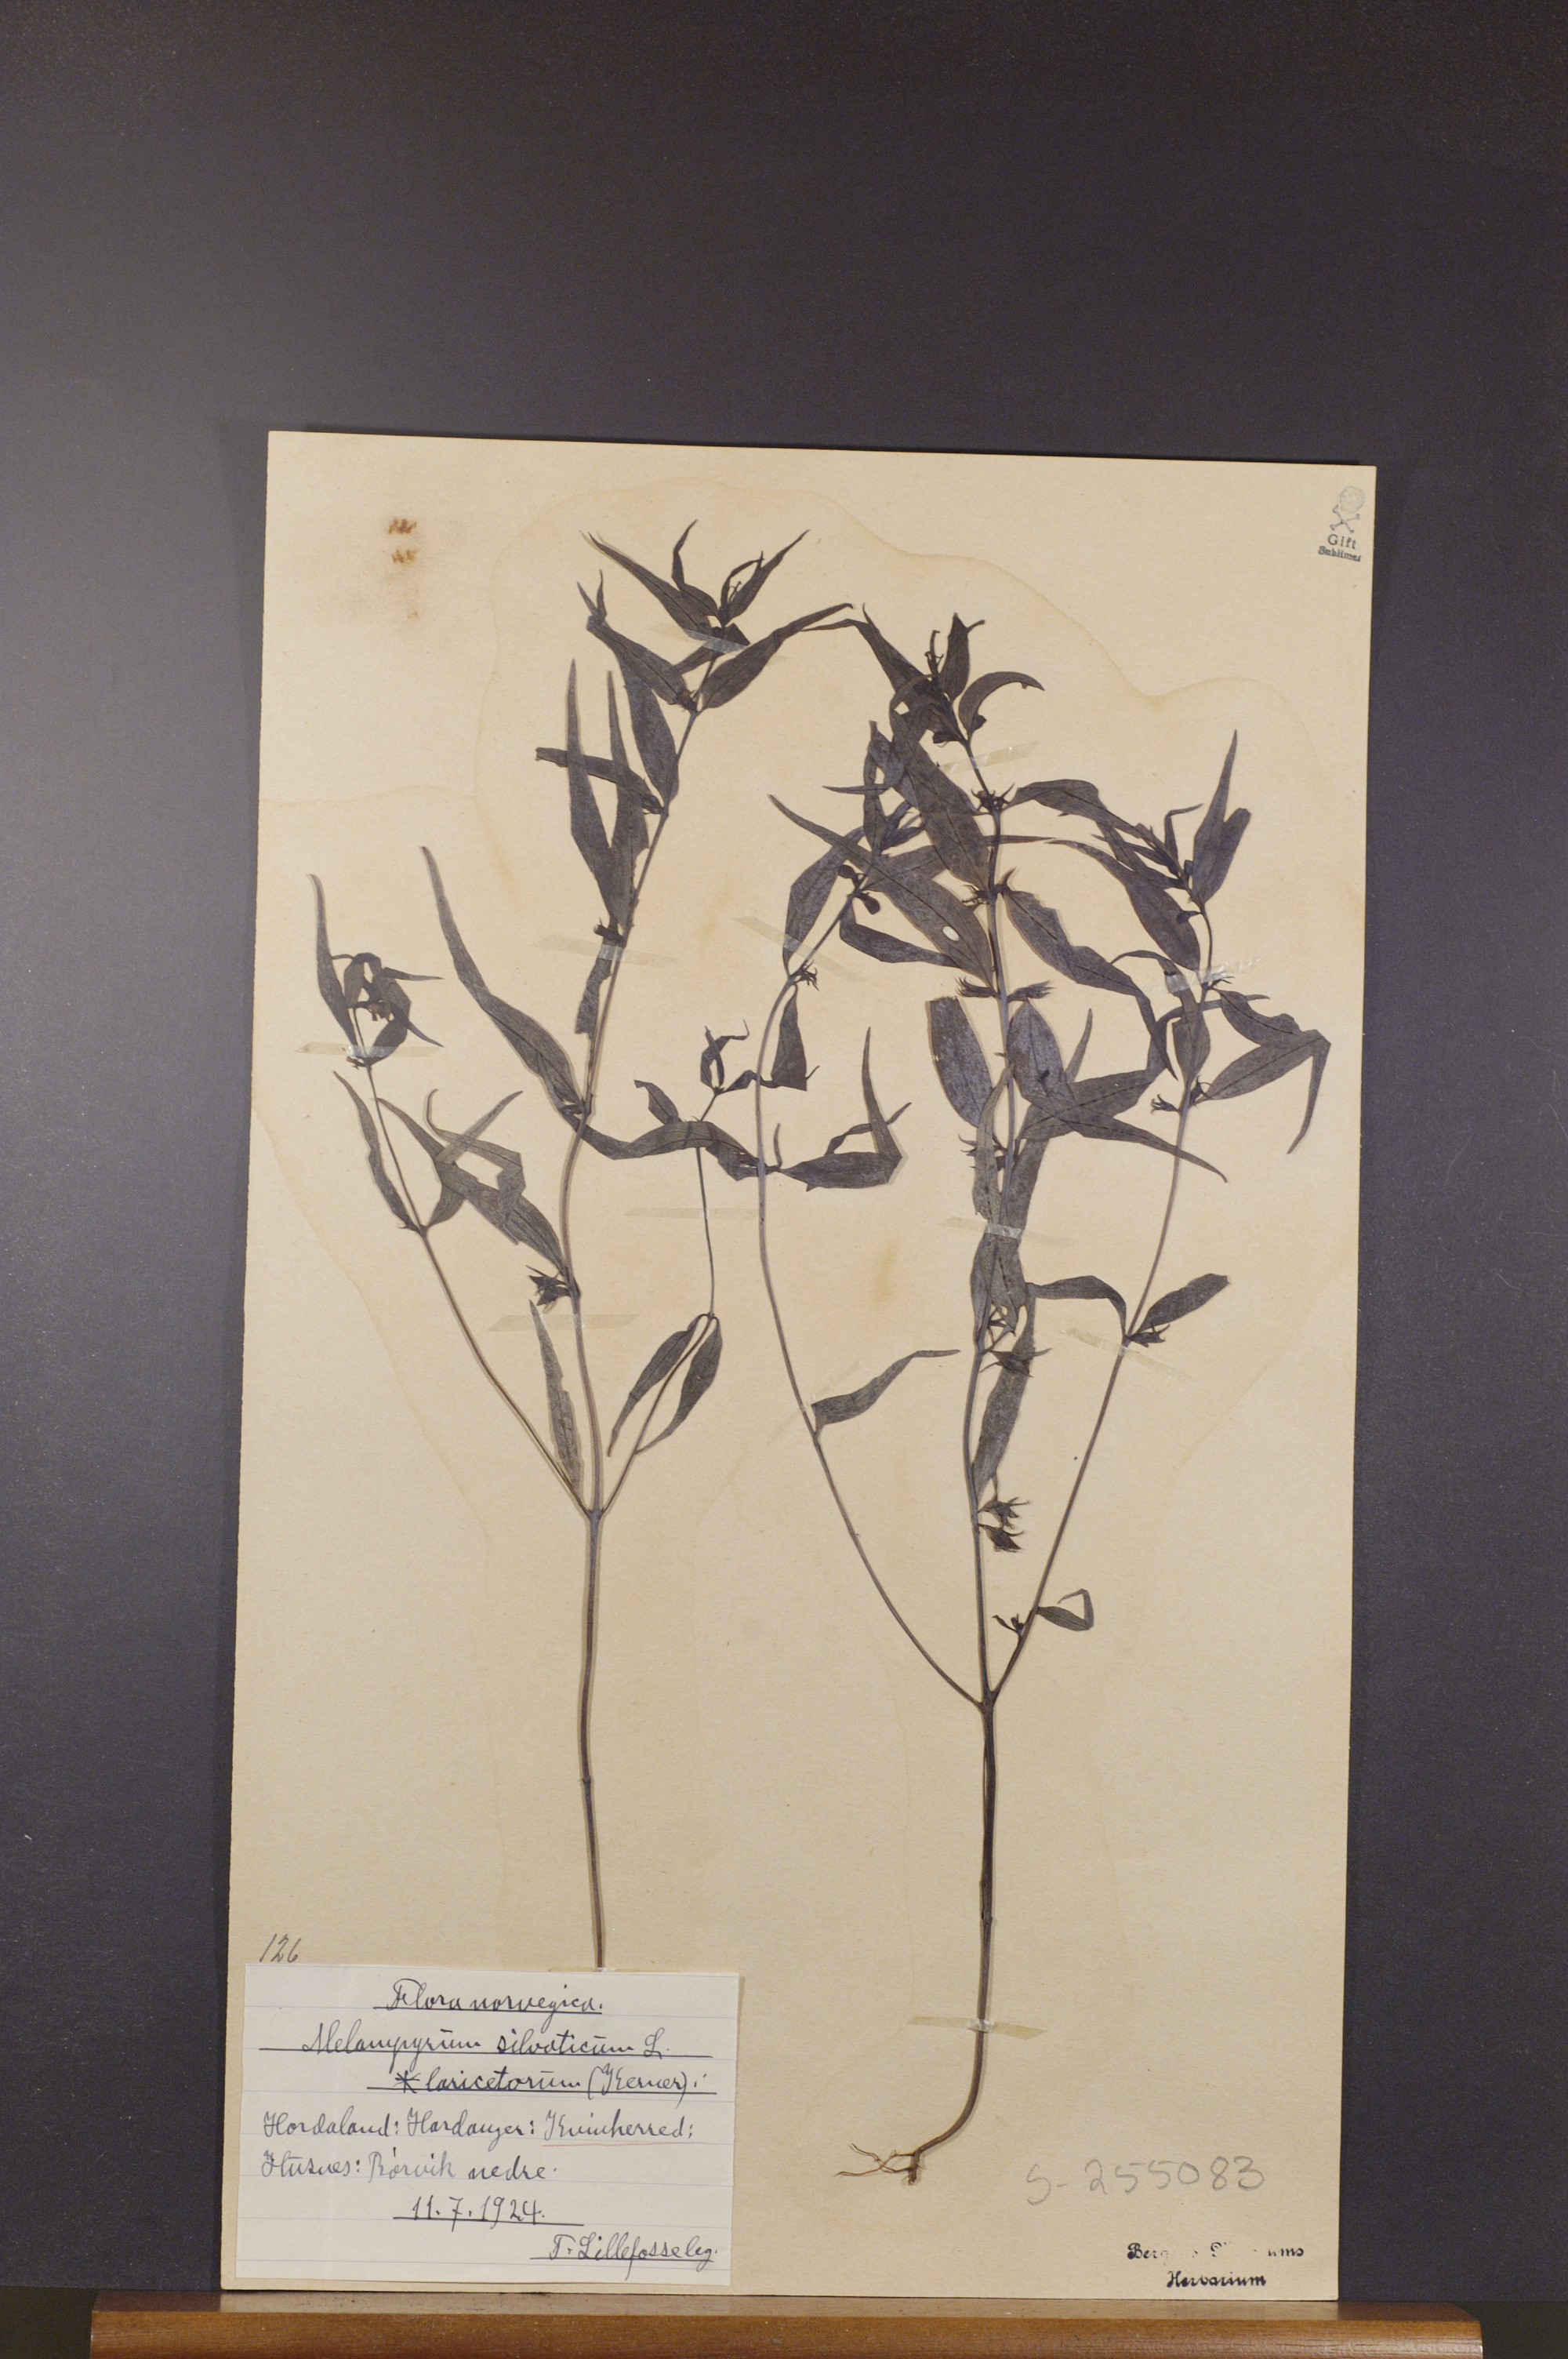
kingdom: Plantae
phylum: Tracheophyta
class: Magnoliopsida
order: Lamiales
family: Orobanchaceae
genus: Melampyrum
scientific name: Melampyrum sylvaticum
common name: Small cow-wheat
